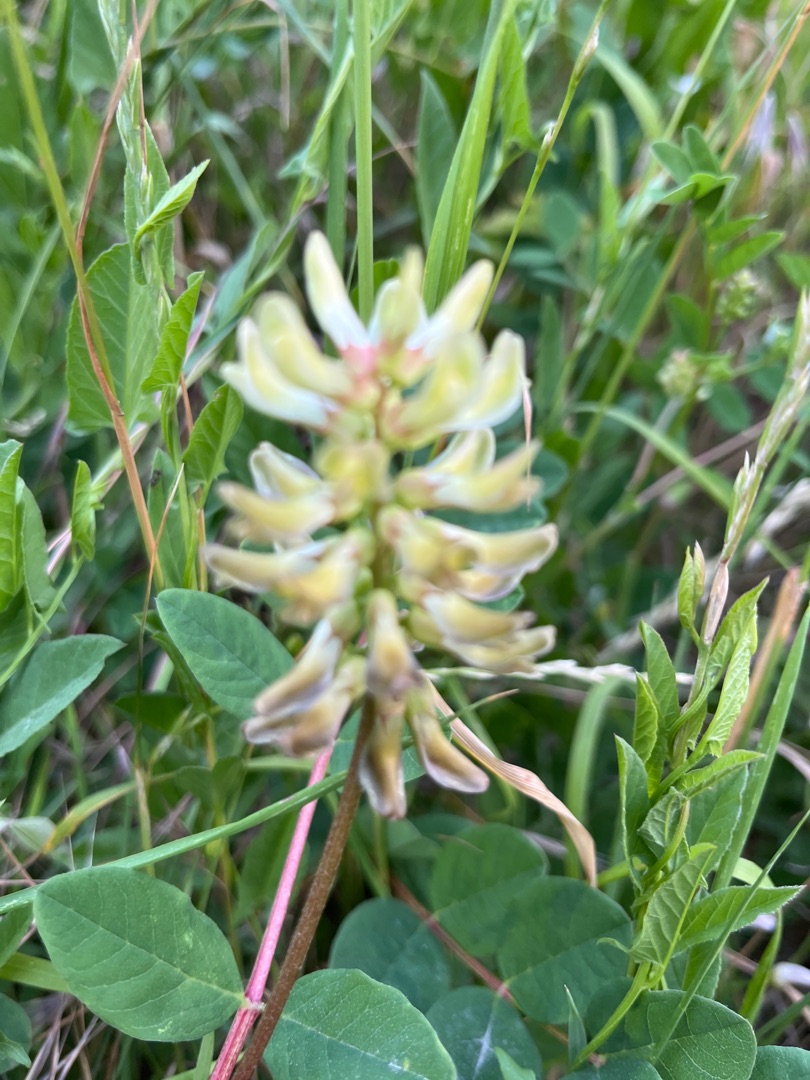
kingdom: Plantae
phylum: Tracheophyta
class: Magnoliopsida
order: Fabales
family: Fabaceae
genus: Astragalus
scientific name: Astragalus glycyphyllos
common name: Sød astragel
